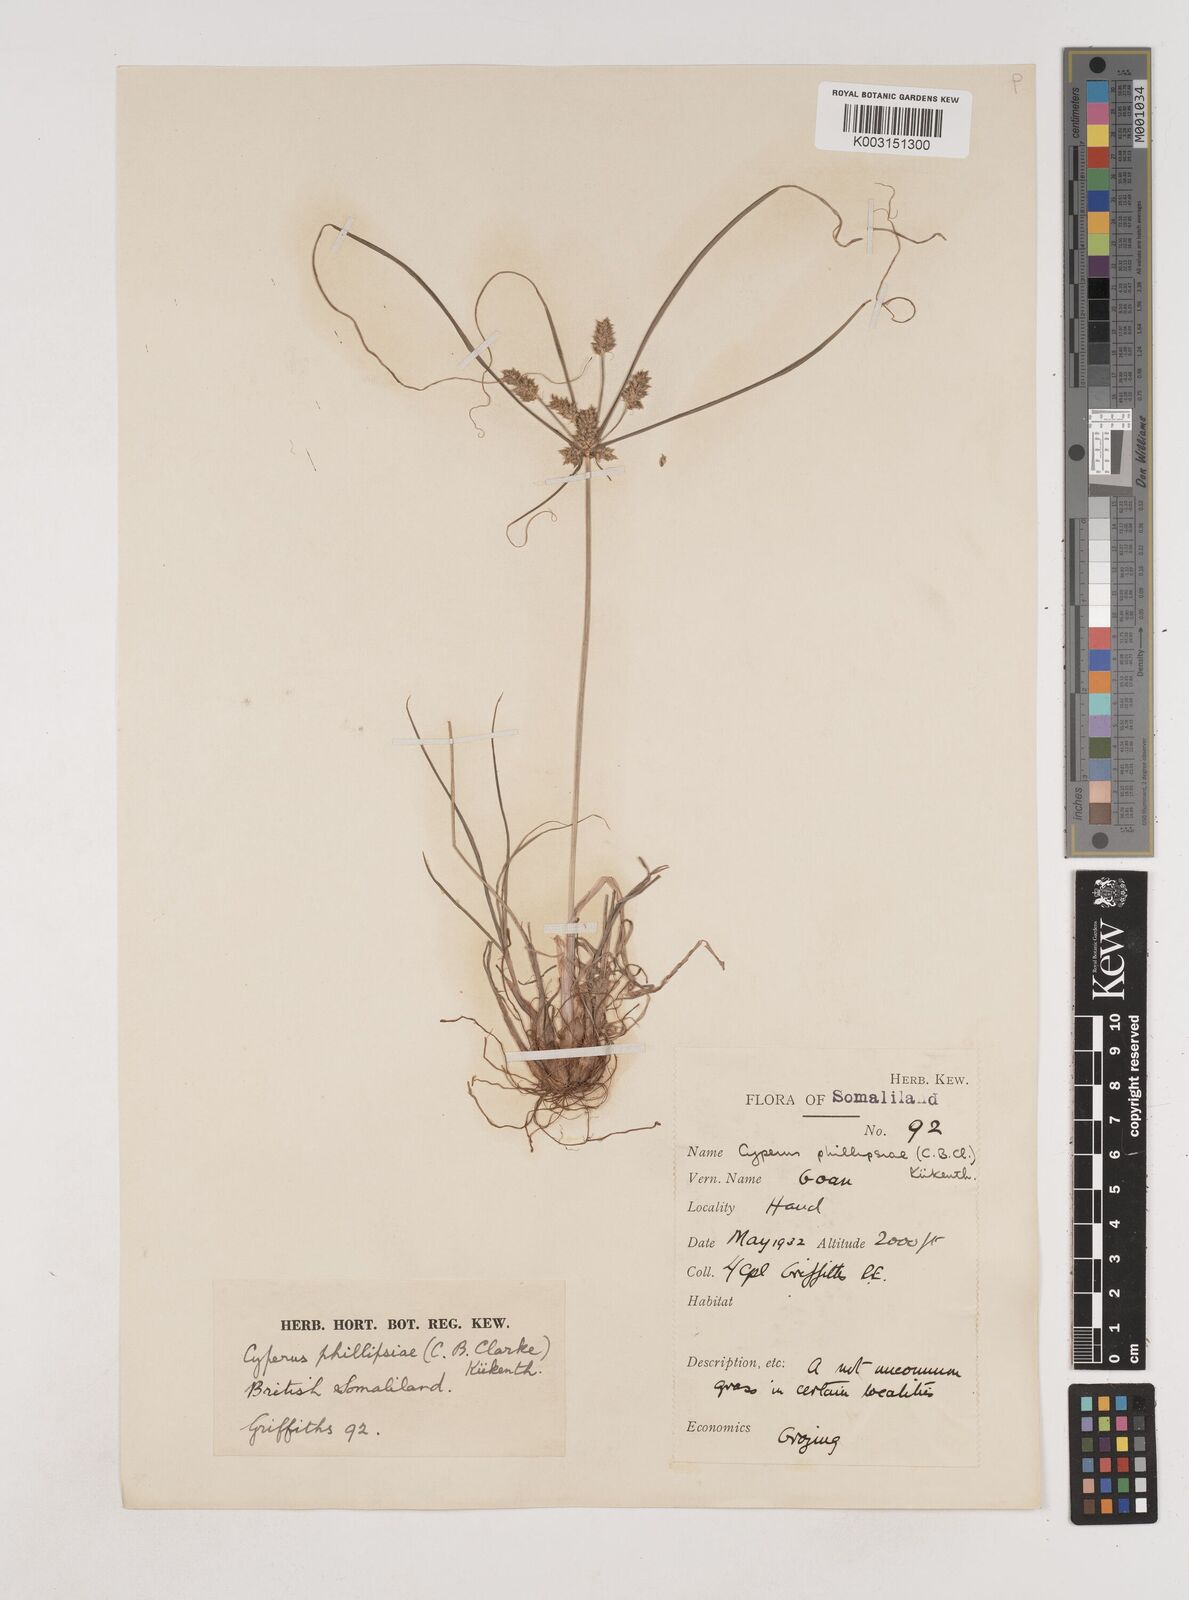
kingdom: Plantae
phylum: Tracheophyta
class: Liliopsida
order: Poales
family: Cyperaceae
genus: Cyperus
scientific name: Cyperus phillipsiae
